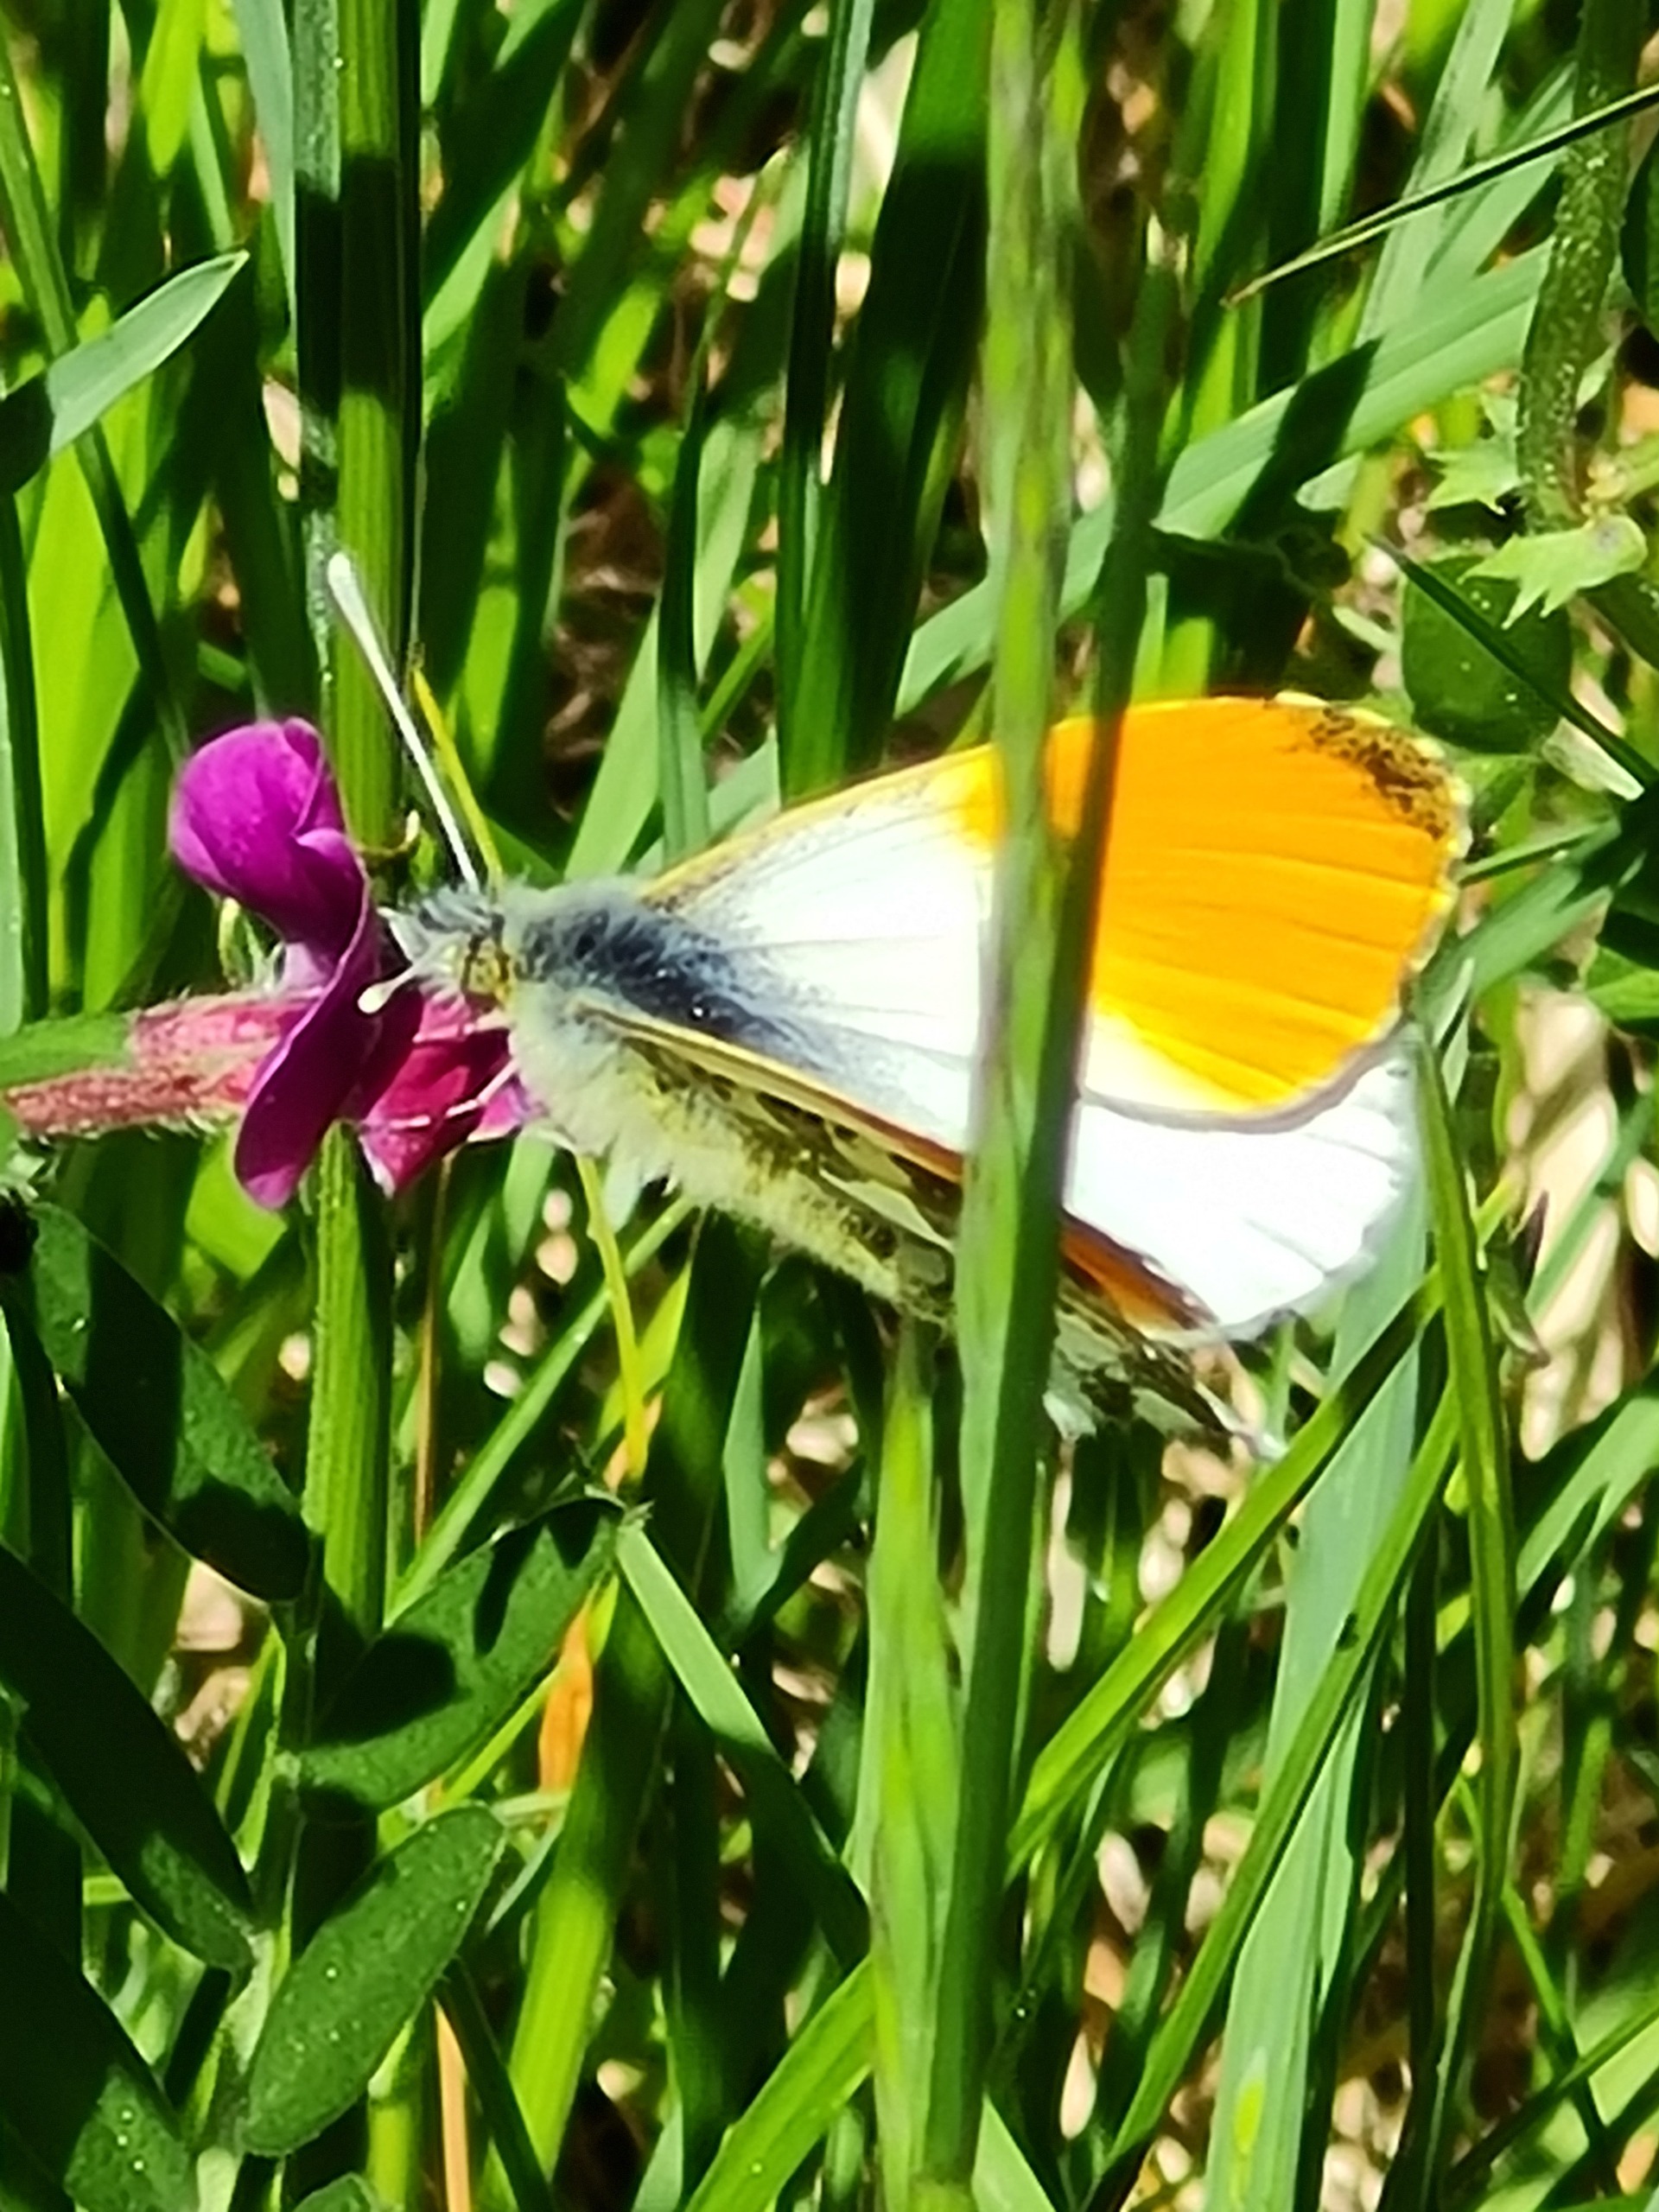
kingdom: Animalia
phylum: Arthropoda
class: Insecta
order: Lepidoptera
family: Pieridae
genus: Anthocharis
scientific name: Anthocharis cardamines
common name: Aurora
